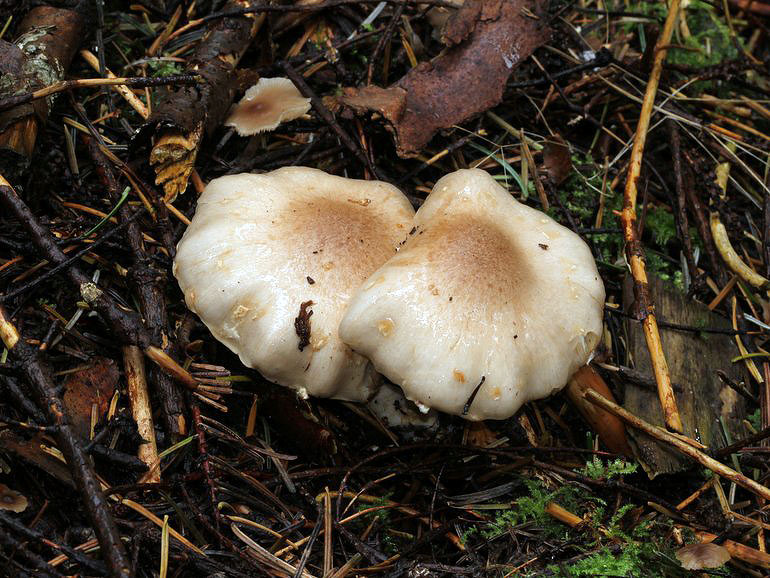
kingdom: Fungi
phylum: Basidiomycota
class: Agaricomycetes
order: Agaricales
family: Strophariaceae
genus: Pholiota
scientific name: Pholiota lenta
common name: løv-skælhat
